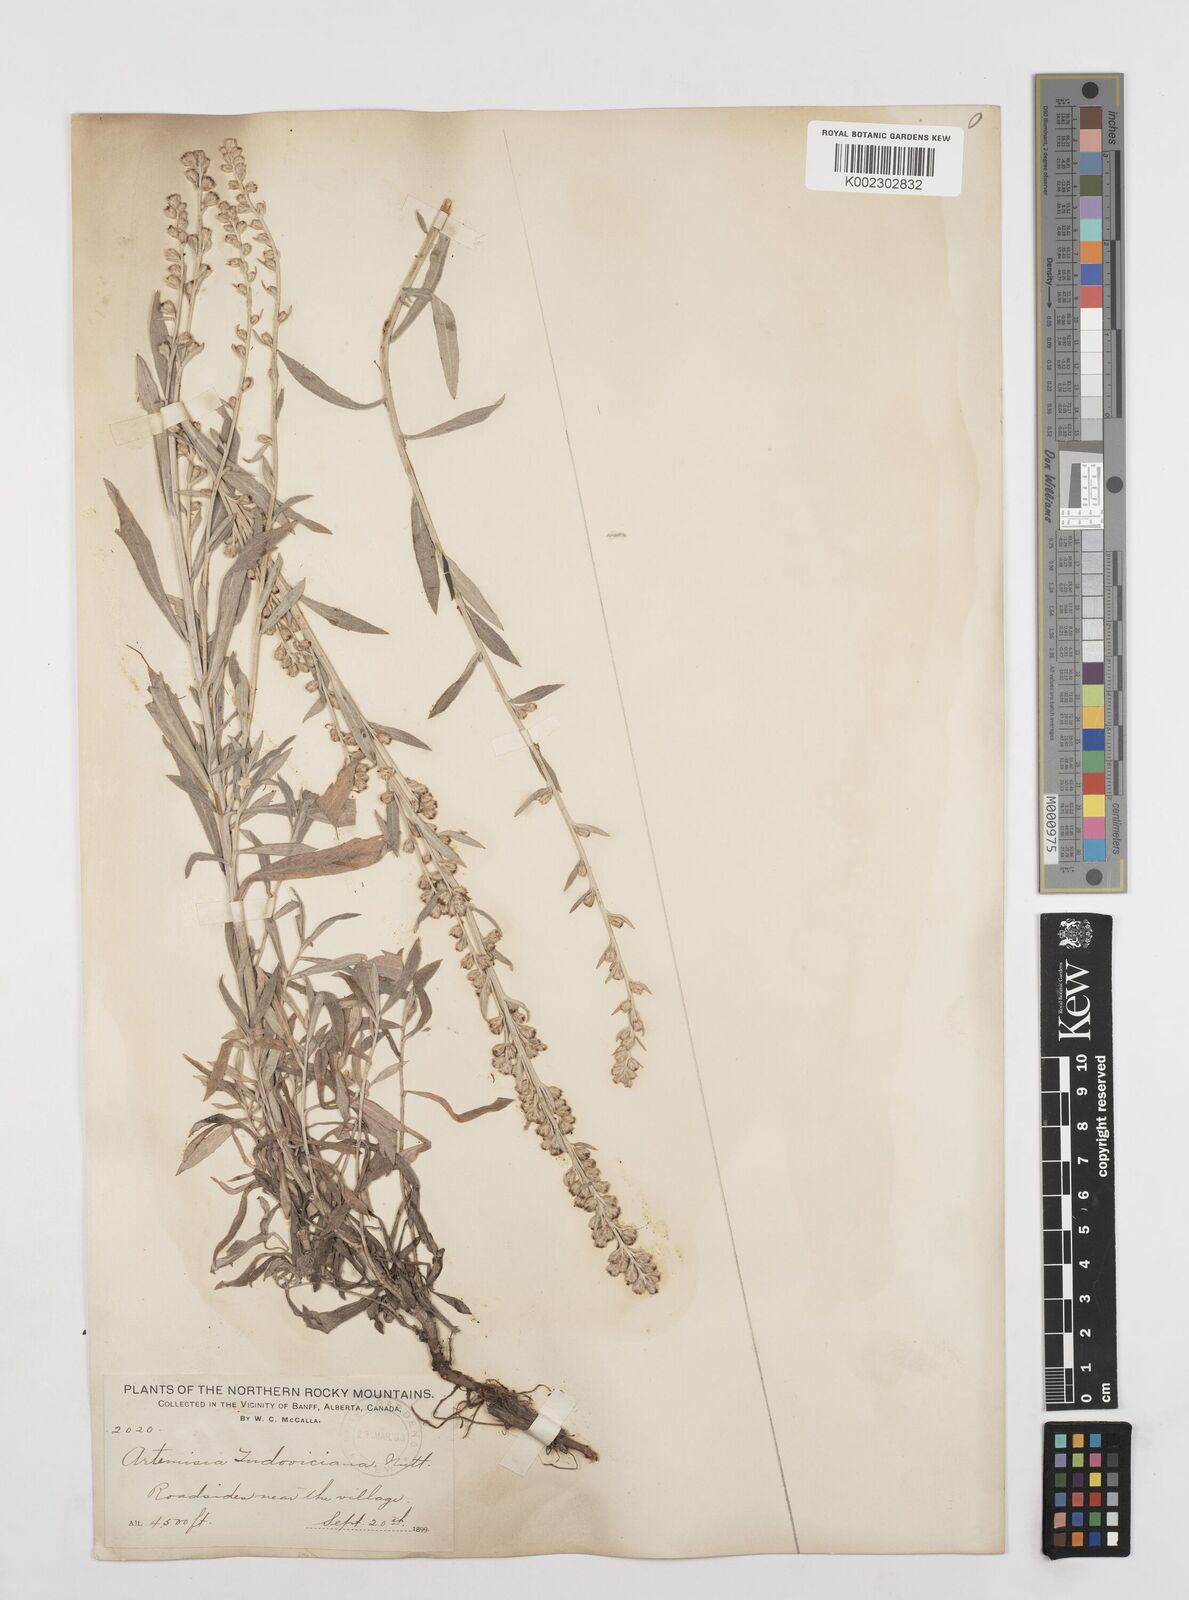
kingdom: Plantae
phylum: Tracheophyta
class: Magnoliopsida
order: Asterales
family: Asteraceae
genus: Artemisia
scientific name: Artemisia ludoviciana
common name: Western mugwort
